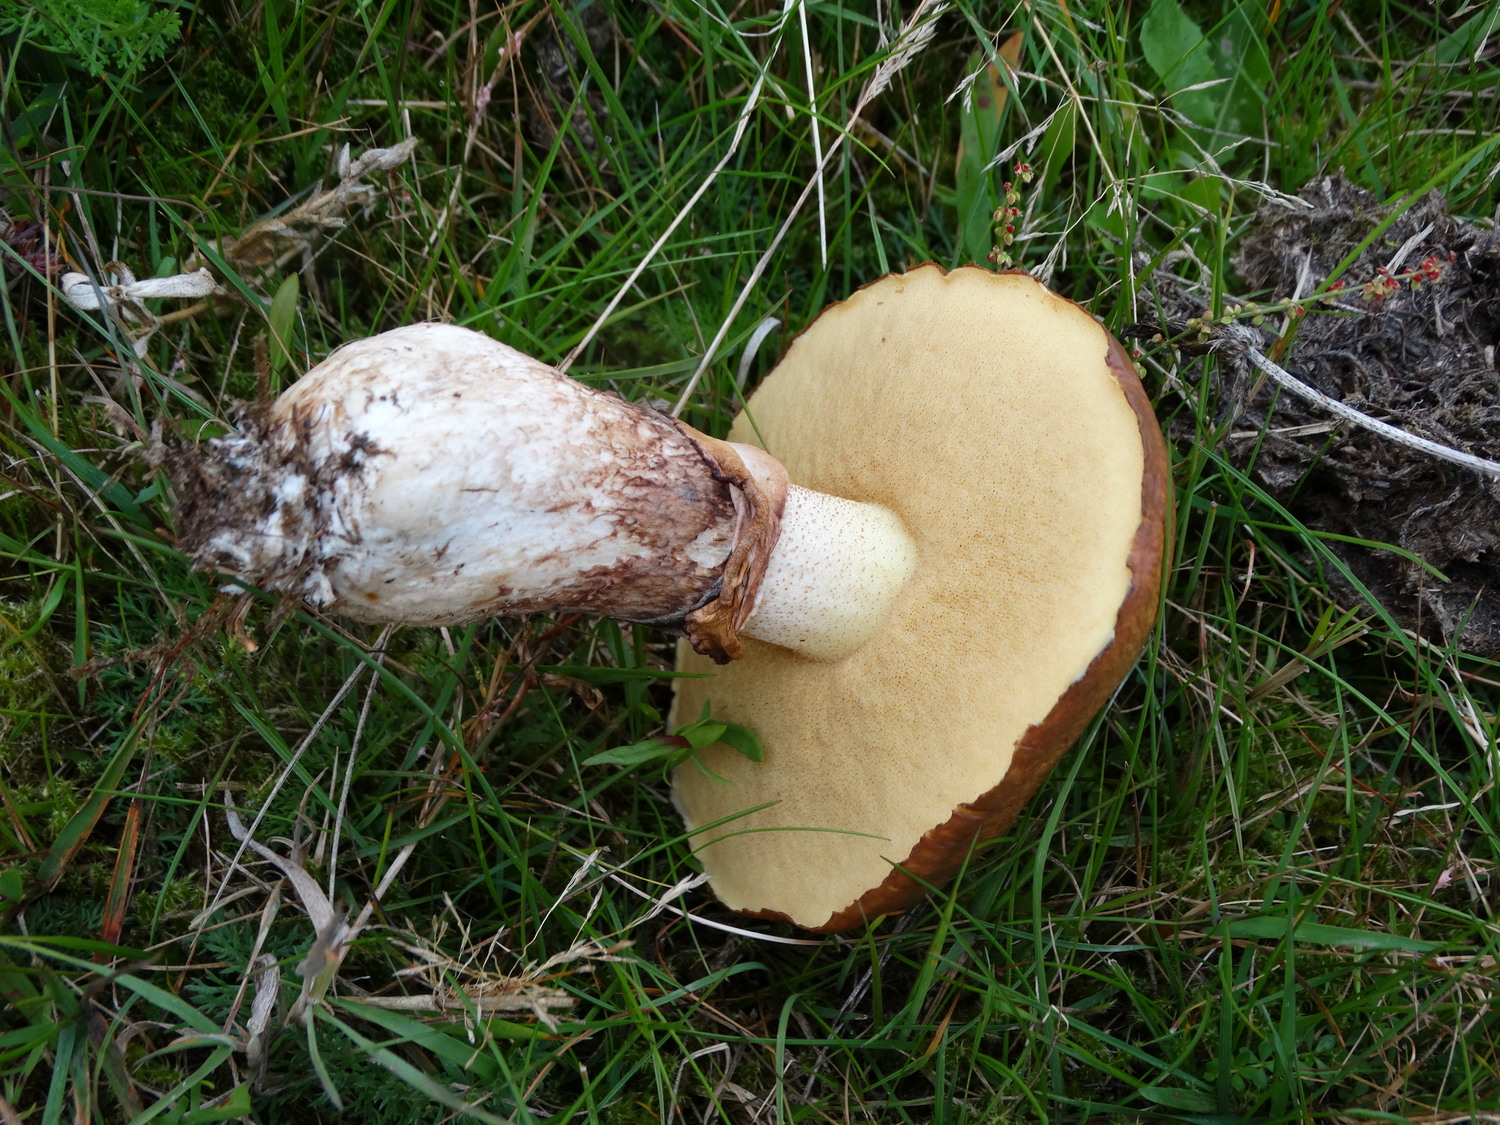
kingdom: Fungi
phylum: Basidiomycota
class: Agaricomycetes
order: Boletales
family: Suillaceae
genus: Suillus
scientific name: Suillus luteus
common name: brungul slimrørhat
